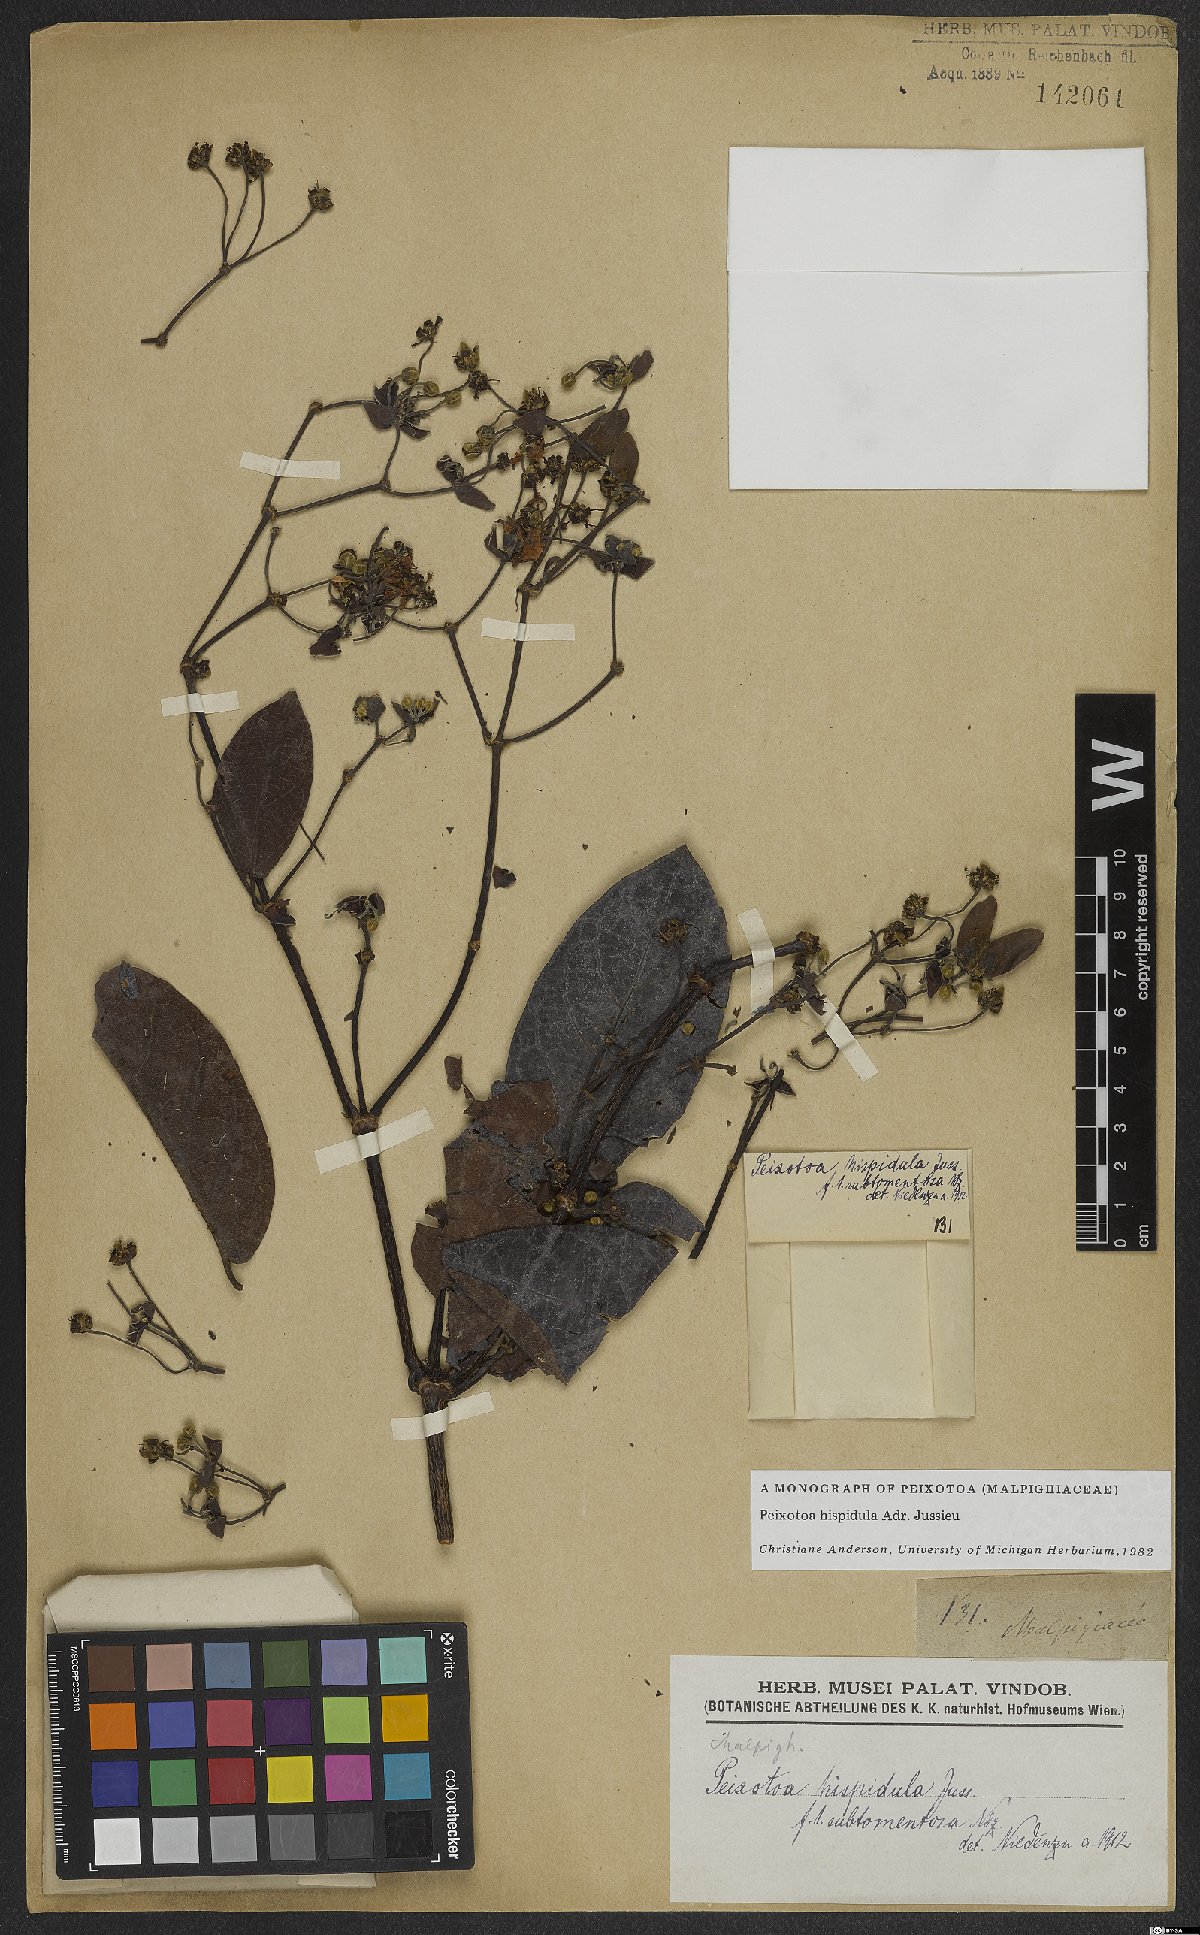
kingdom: Plantae
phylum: Tracheophyta
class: Magnoliopsida
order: Malpighiales
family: Malpighiaceae
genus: Peixotoa
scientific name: Peixotoa hispidula
